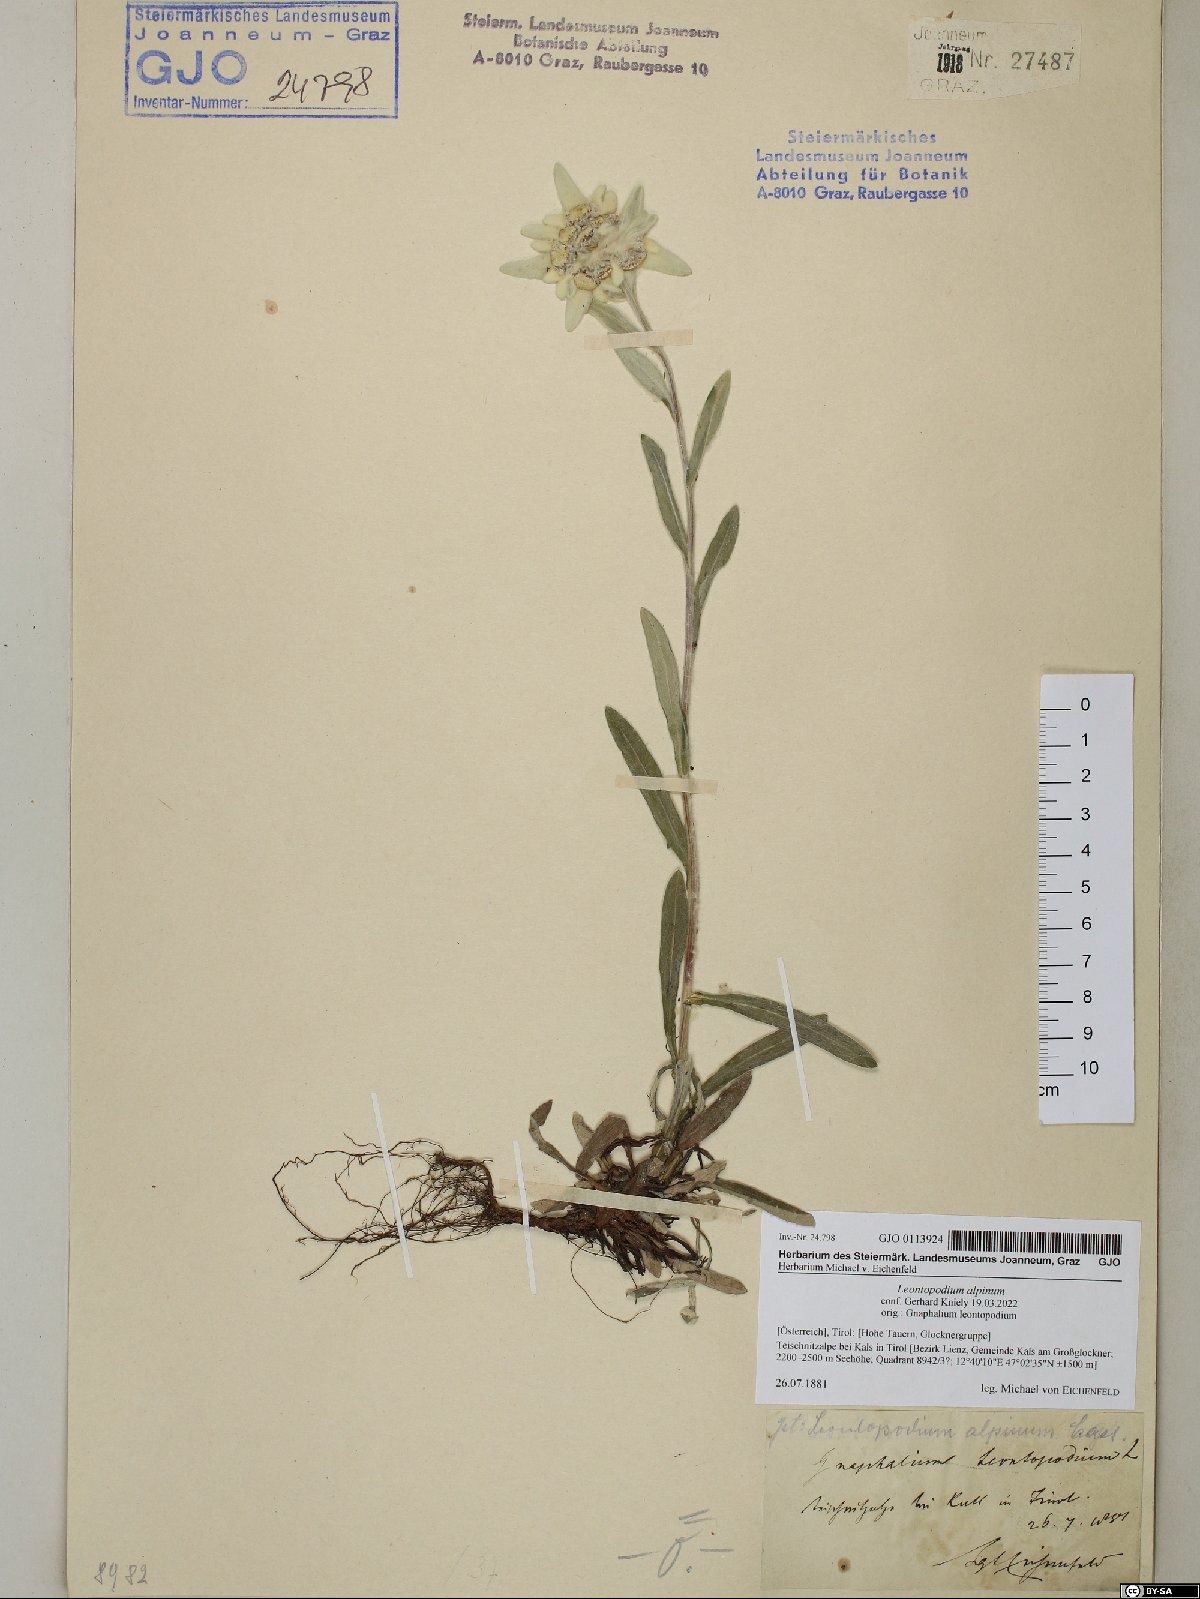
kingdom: Plantae
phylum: Tracheophyta
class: Magnoliopsida
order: Asterales
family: Asteraceae
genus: Leontopodium
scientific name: Leontopodium nivale
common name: Edelweiss
